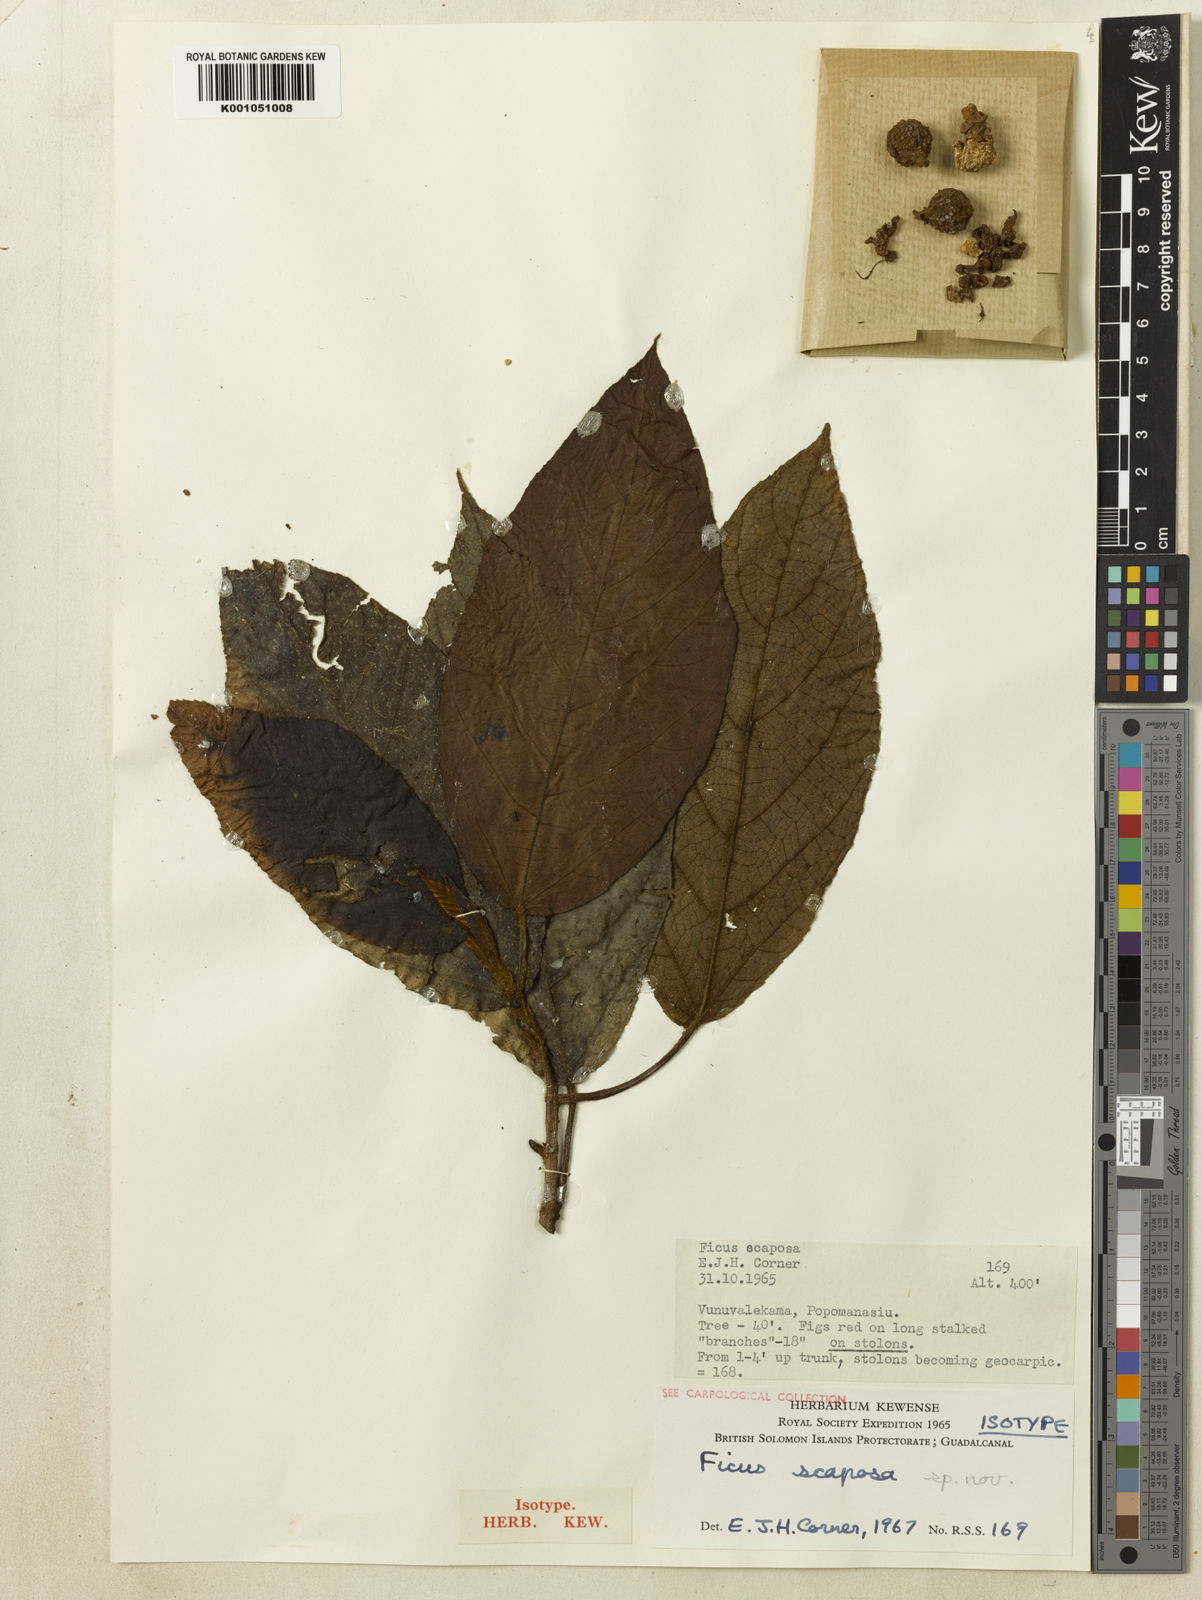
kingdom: Plantae
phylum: Tracheophyta
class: Magnoliopsida
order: Rosales
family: Moraceae
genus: Ficus
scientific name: Ficus scaposa
